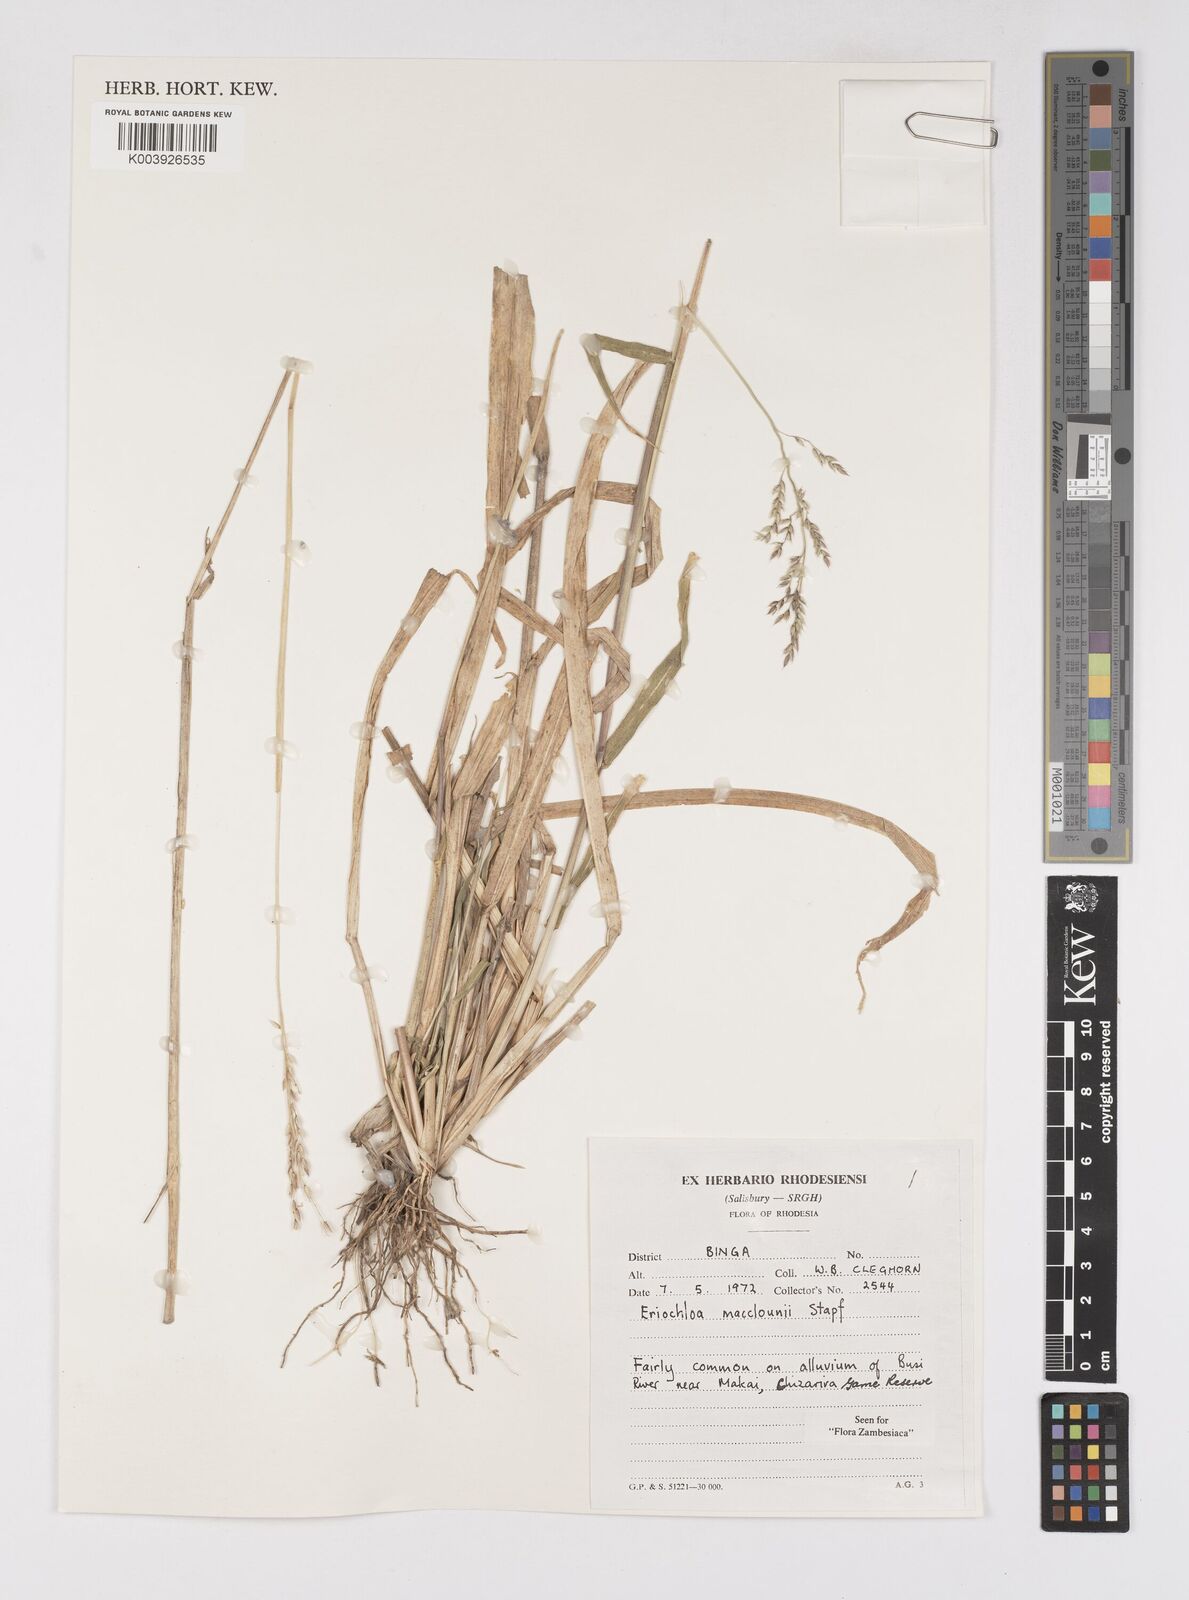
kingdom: Plantae
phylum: Tracheophyta
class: Liliopsida
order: Poales
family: Poaceae
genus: Eriochloa
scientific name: Eriochloa macclounii
